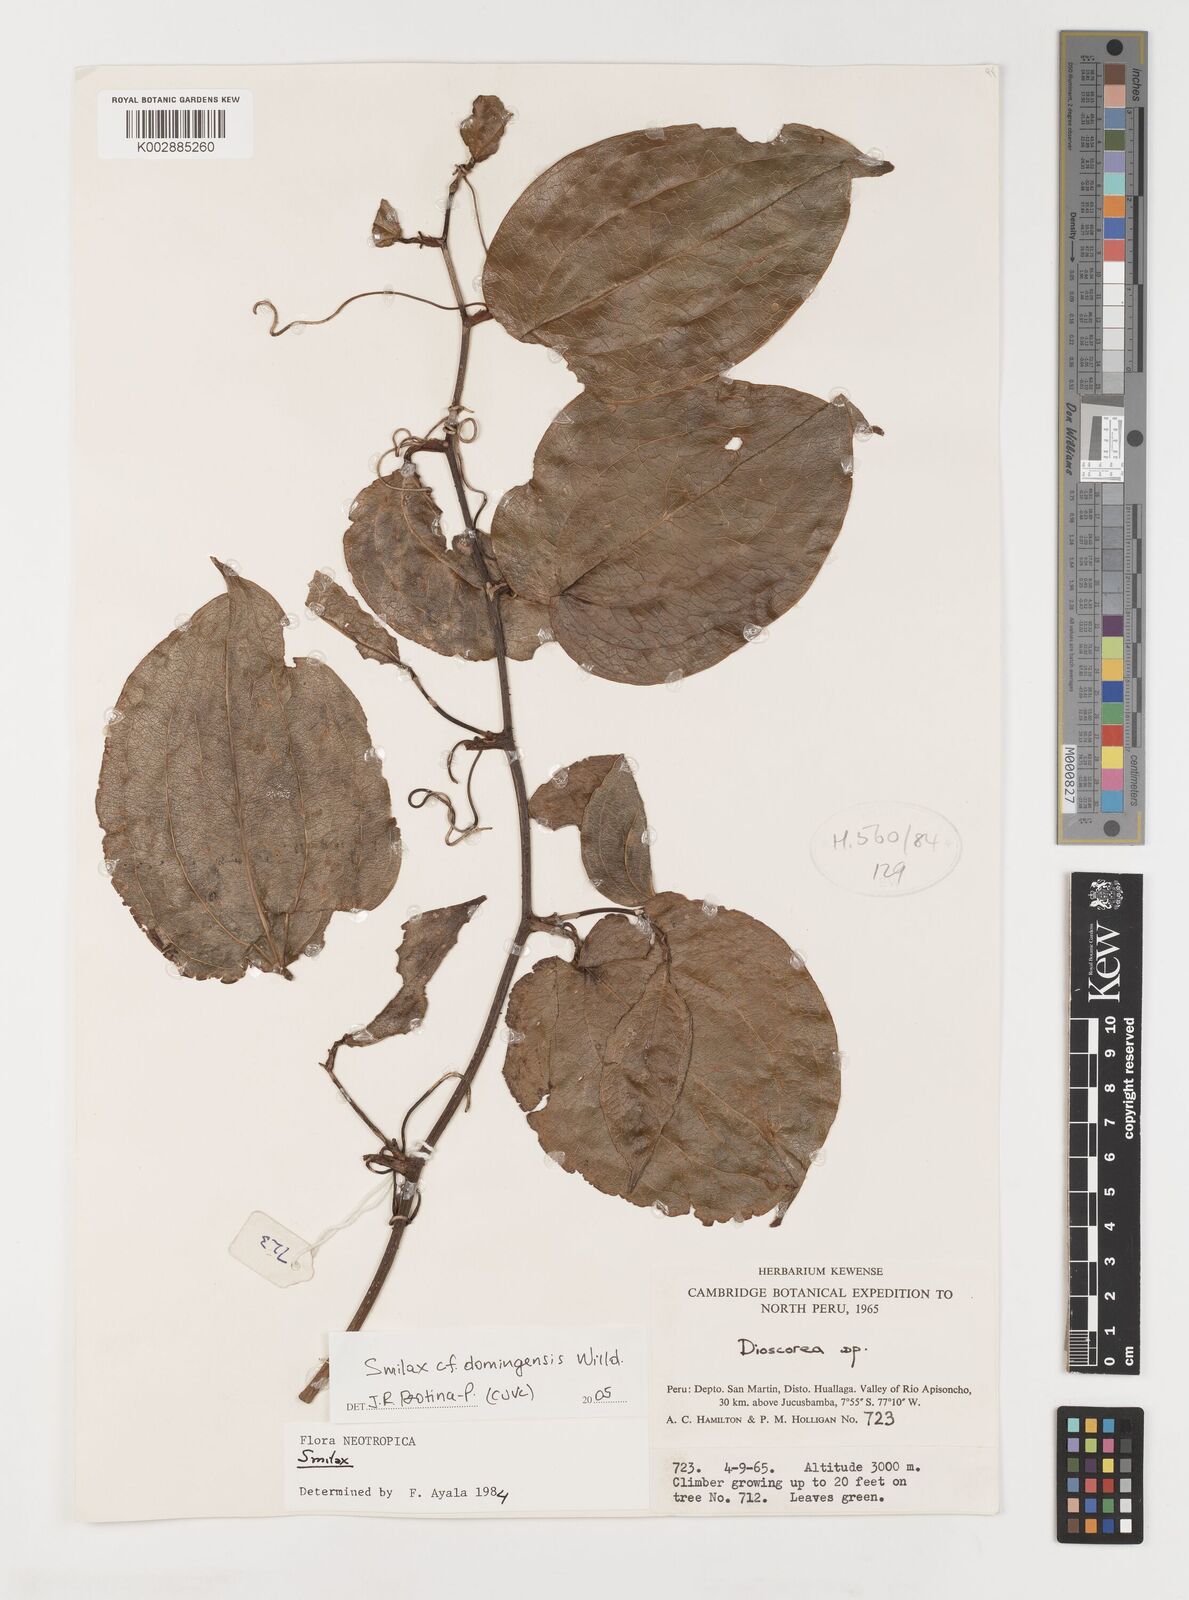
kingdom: Plantae
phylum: Tracheophyta
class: Liliopsida
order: Liliales
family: Smilacaceae
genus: Smilax
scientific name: Smilax domingensis
